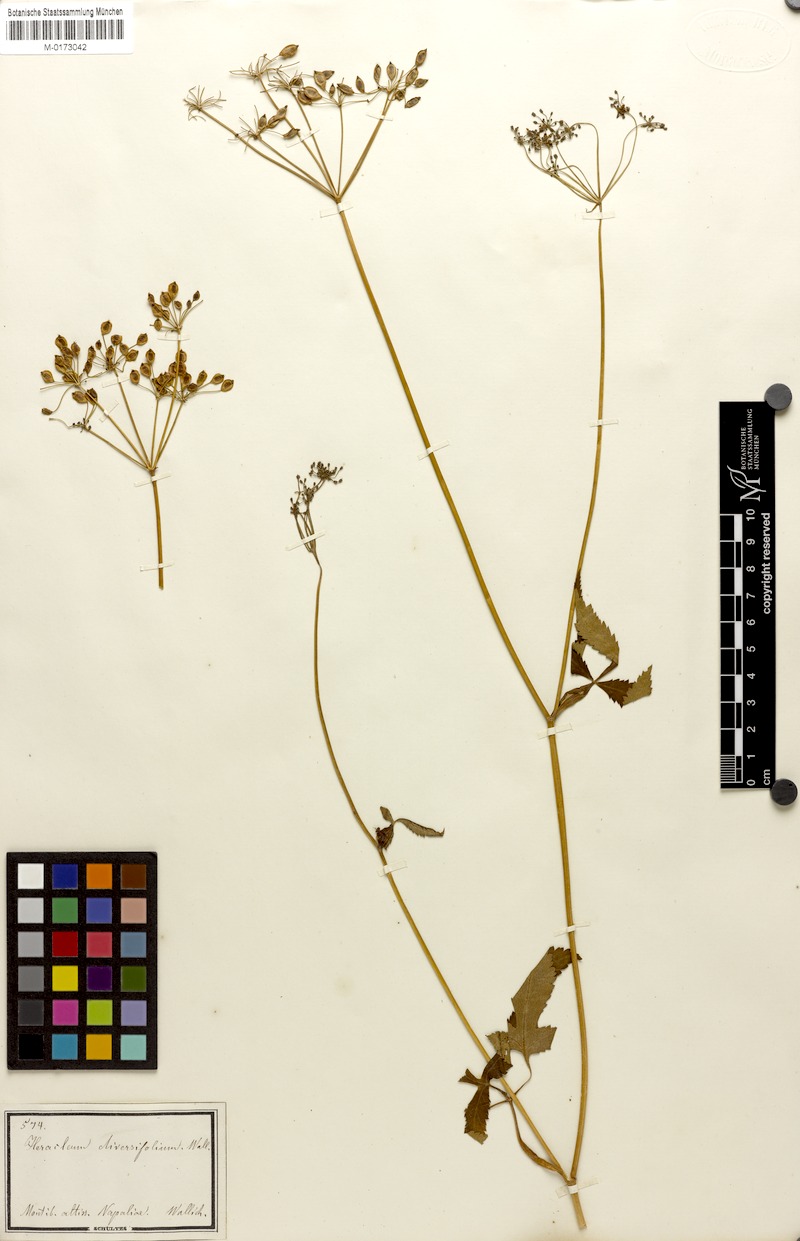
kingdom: Plantae
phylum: Tracheophyta
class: Magnoliopsida
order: Apiales
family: Apiaceae
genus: Tetrataenium
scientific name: Tetrataenium wallichii
